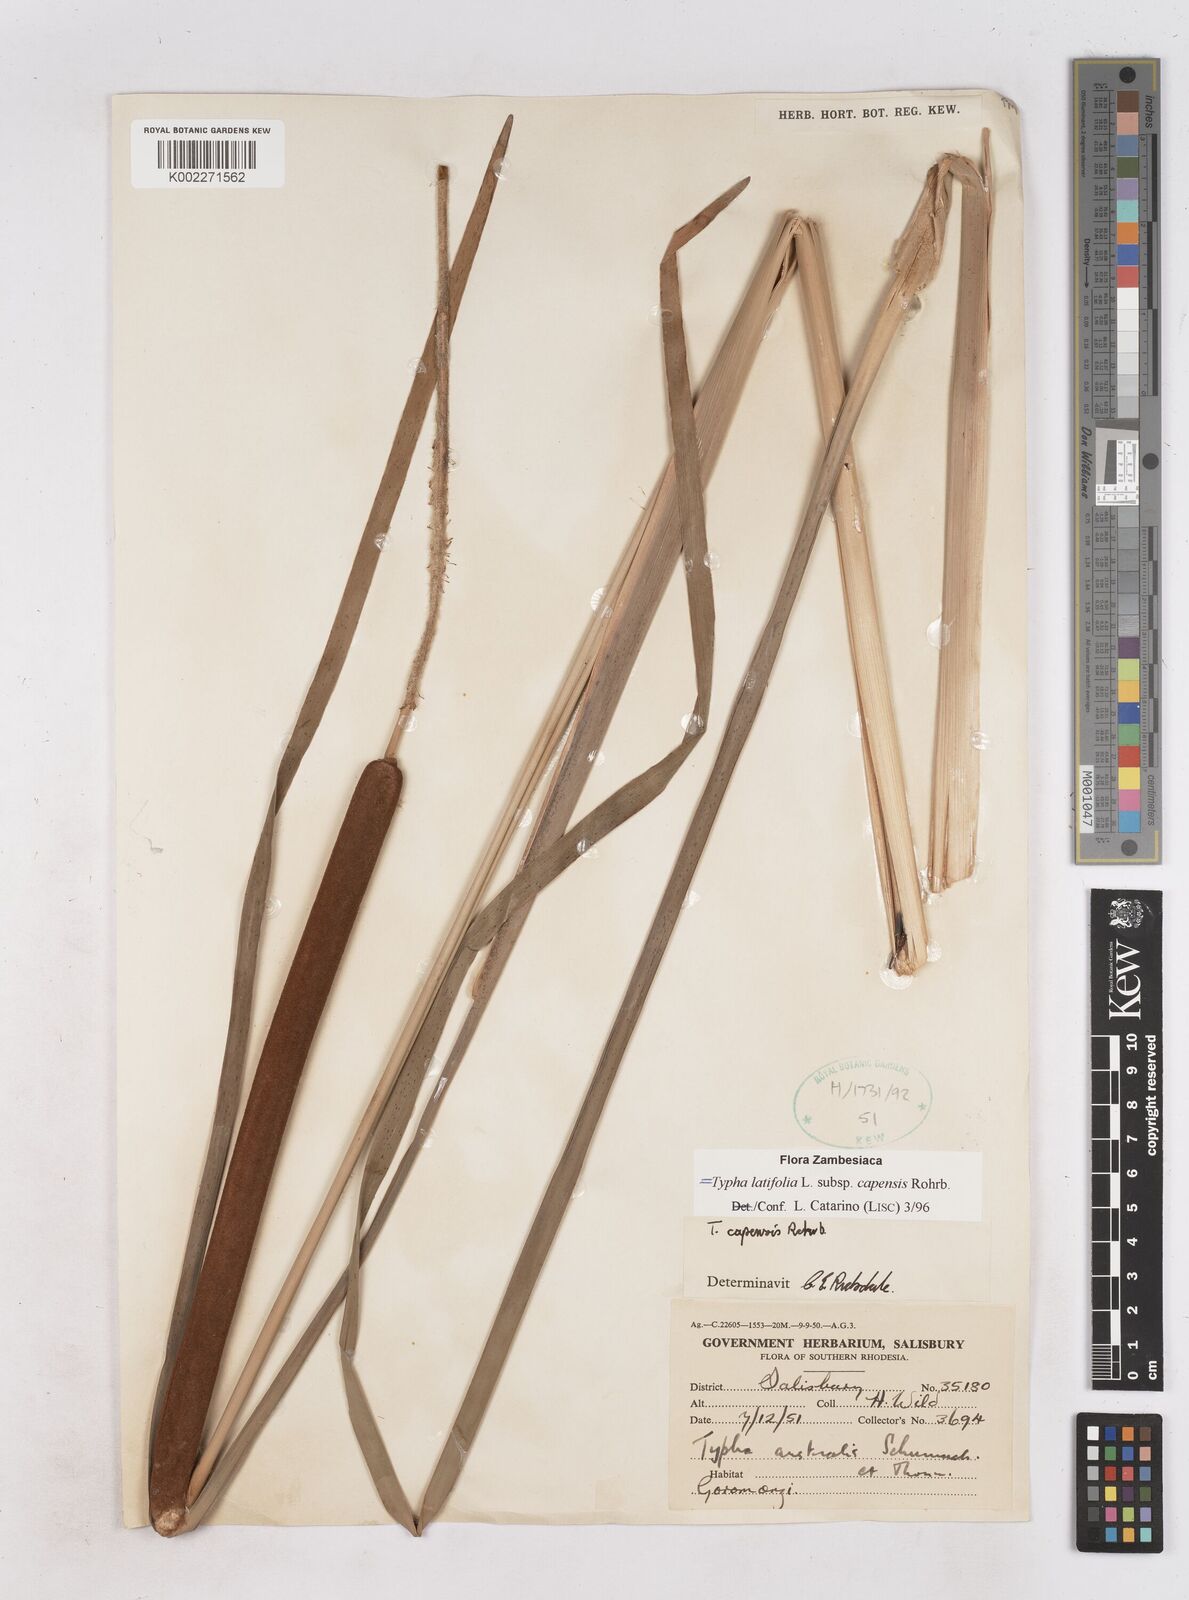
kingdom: Plantae
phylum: Tracheophyta
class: Liliopsida
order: Poales
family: Typhaceae
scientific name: Typhaceae
